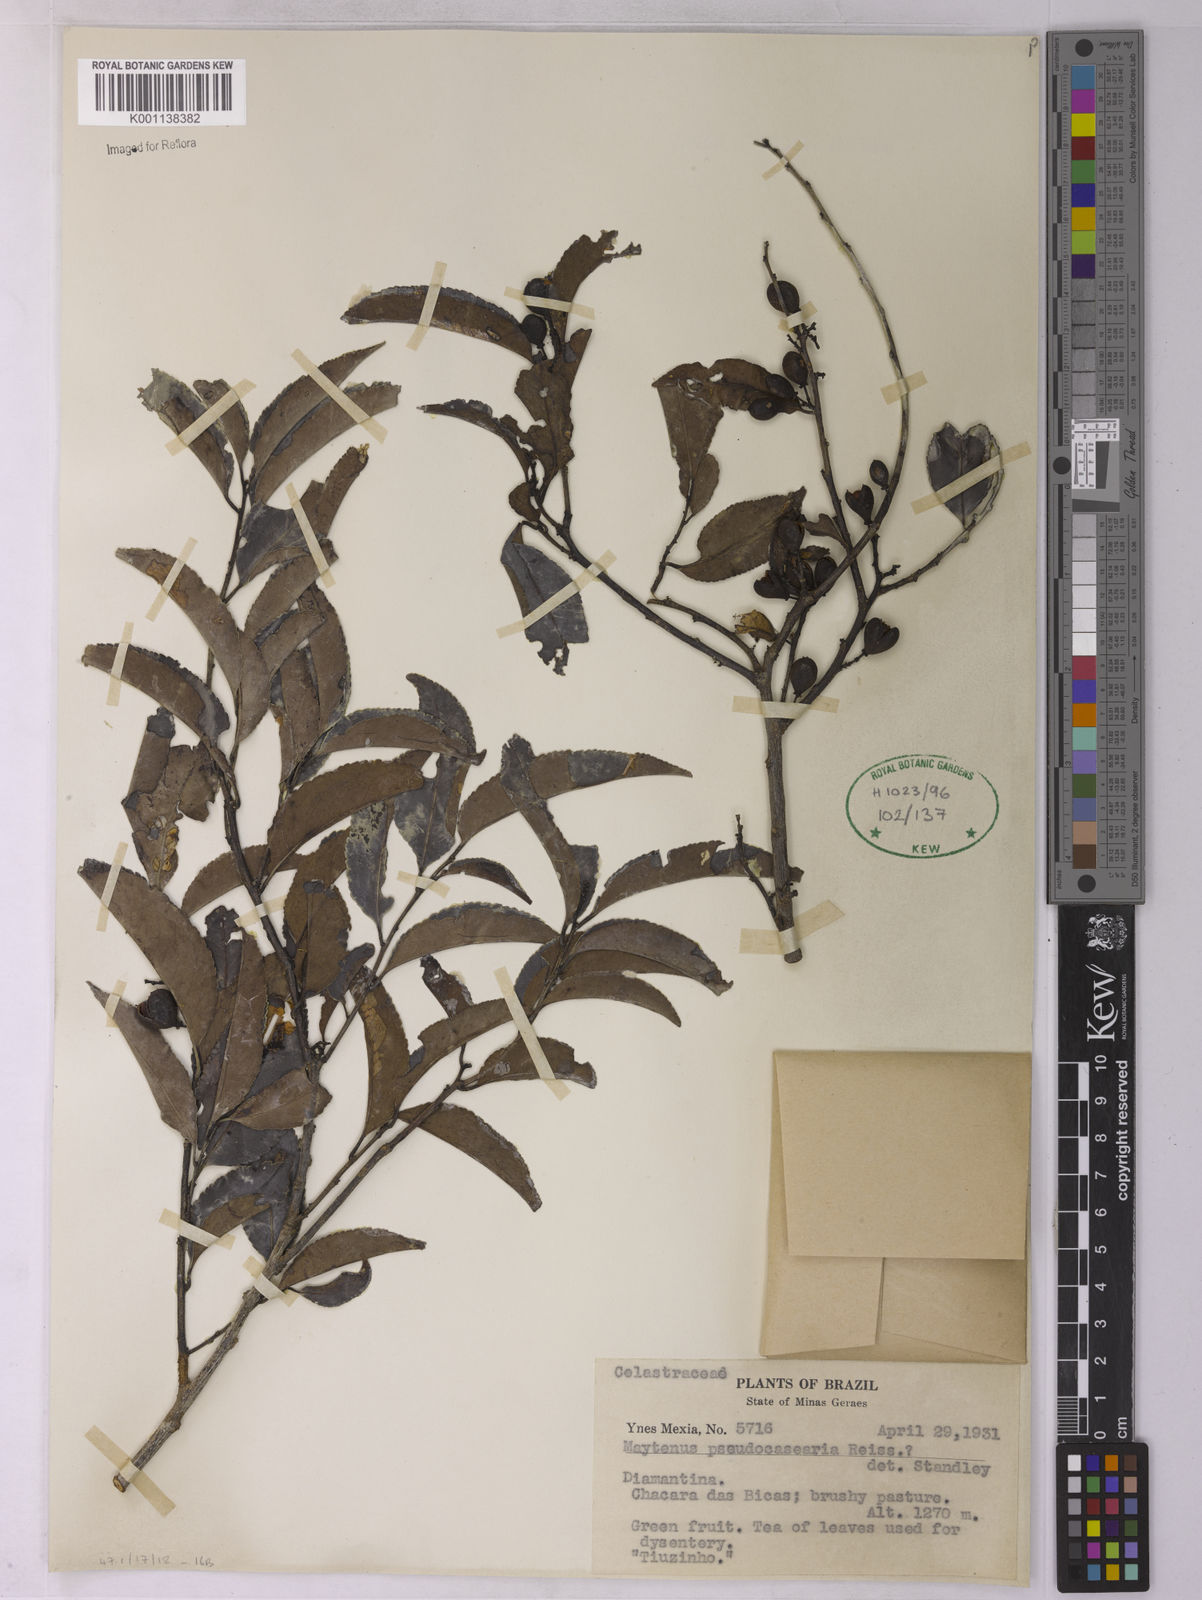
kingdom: Plantae
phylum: Tracheophyta
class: Magnoliopsida
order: Celastrales
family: Celastraceae
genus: Monteverdia
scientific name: Monteverdia evonymoides
